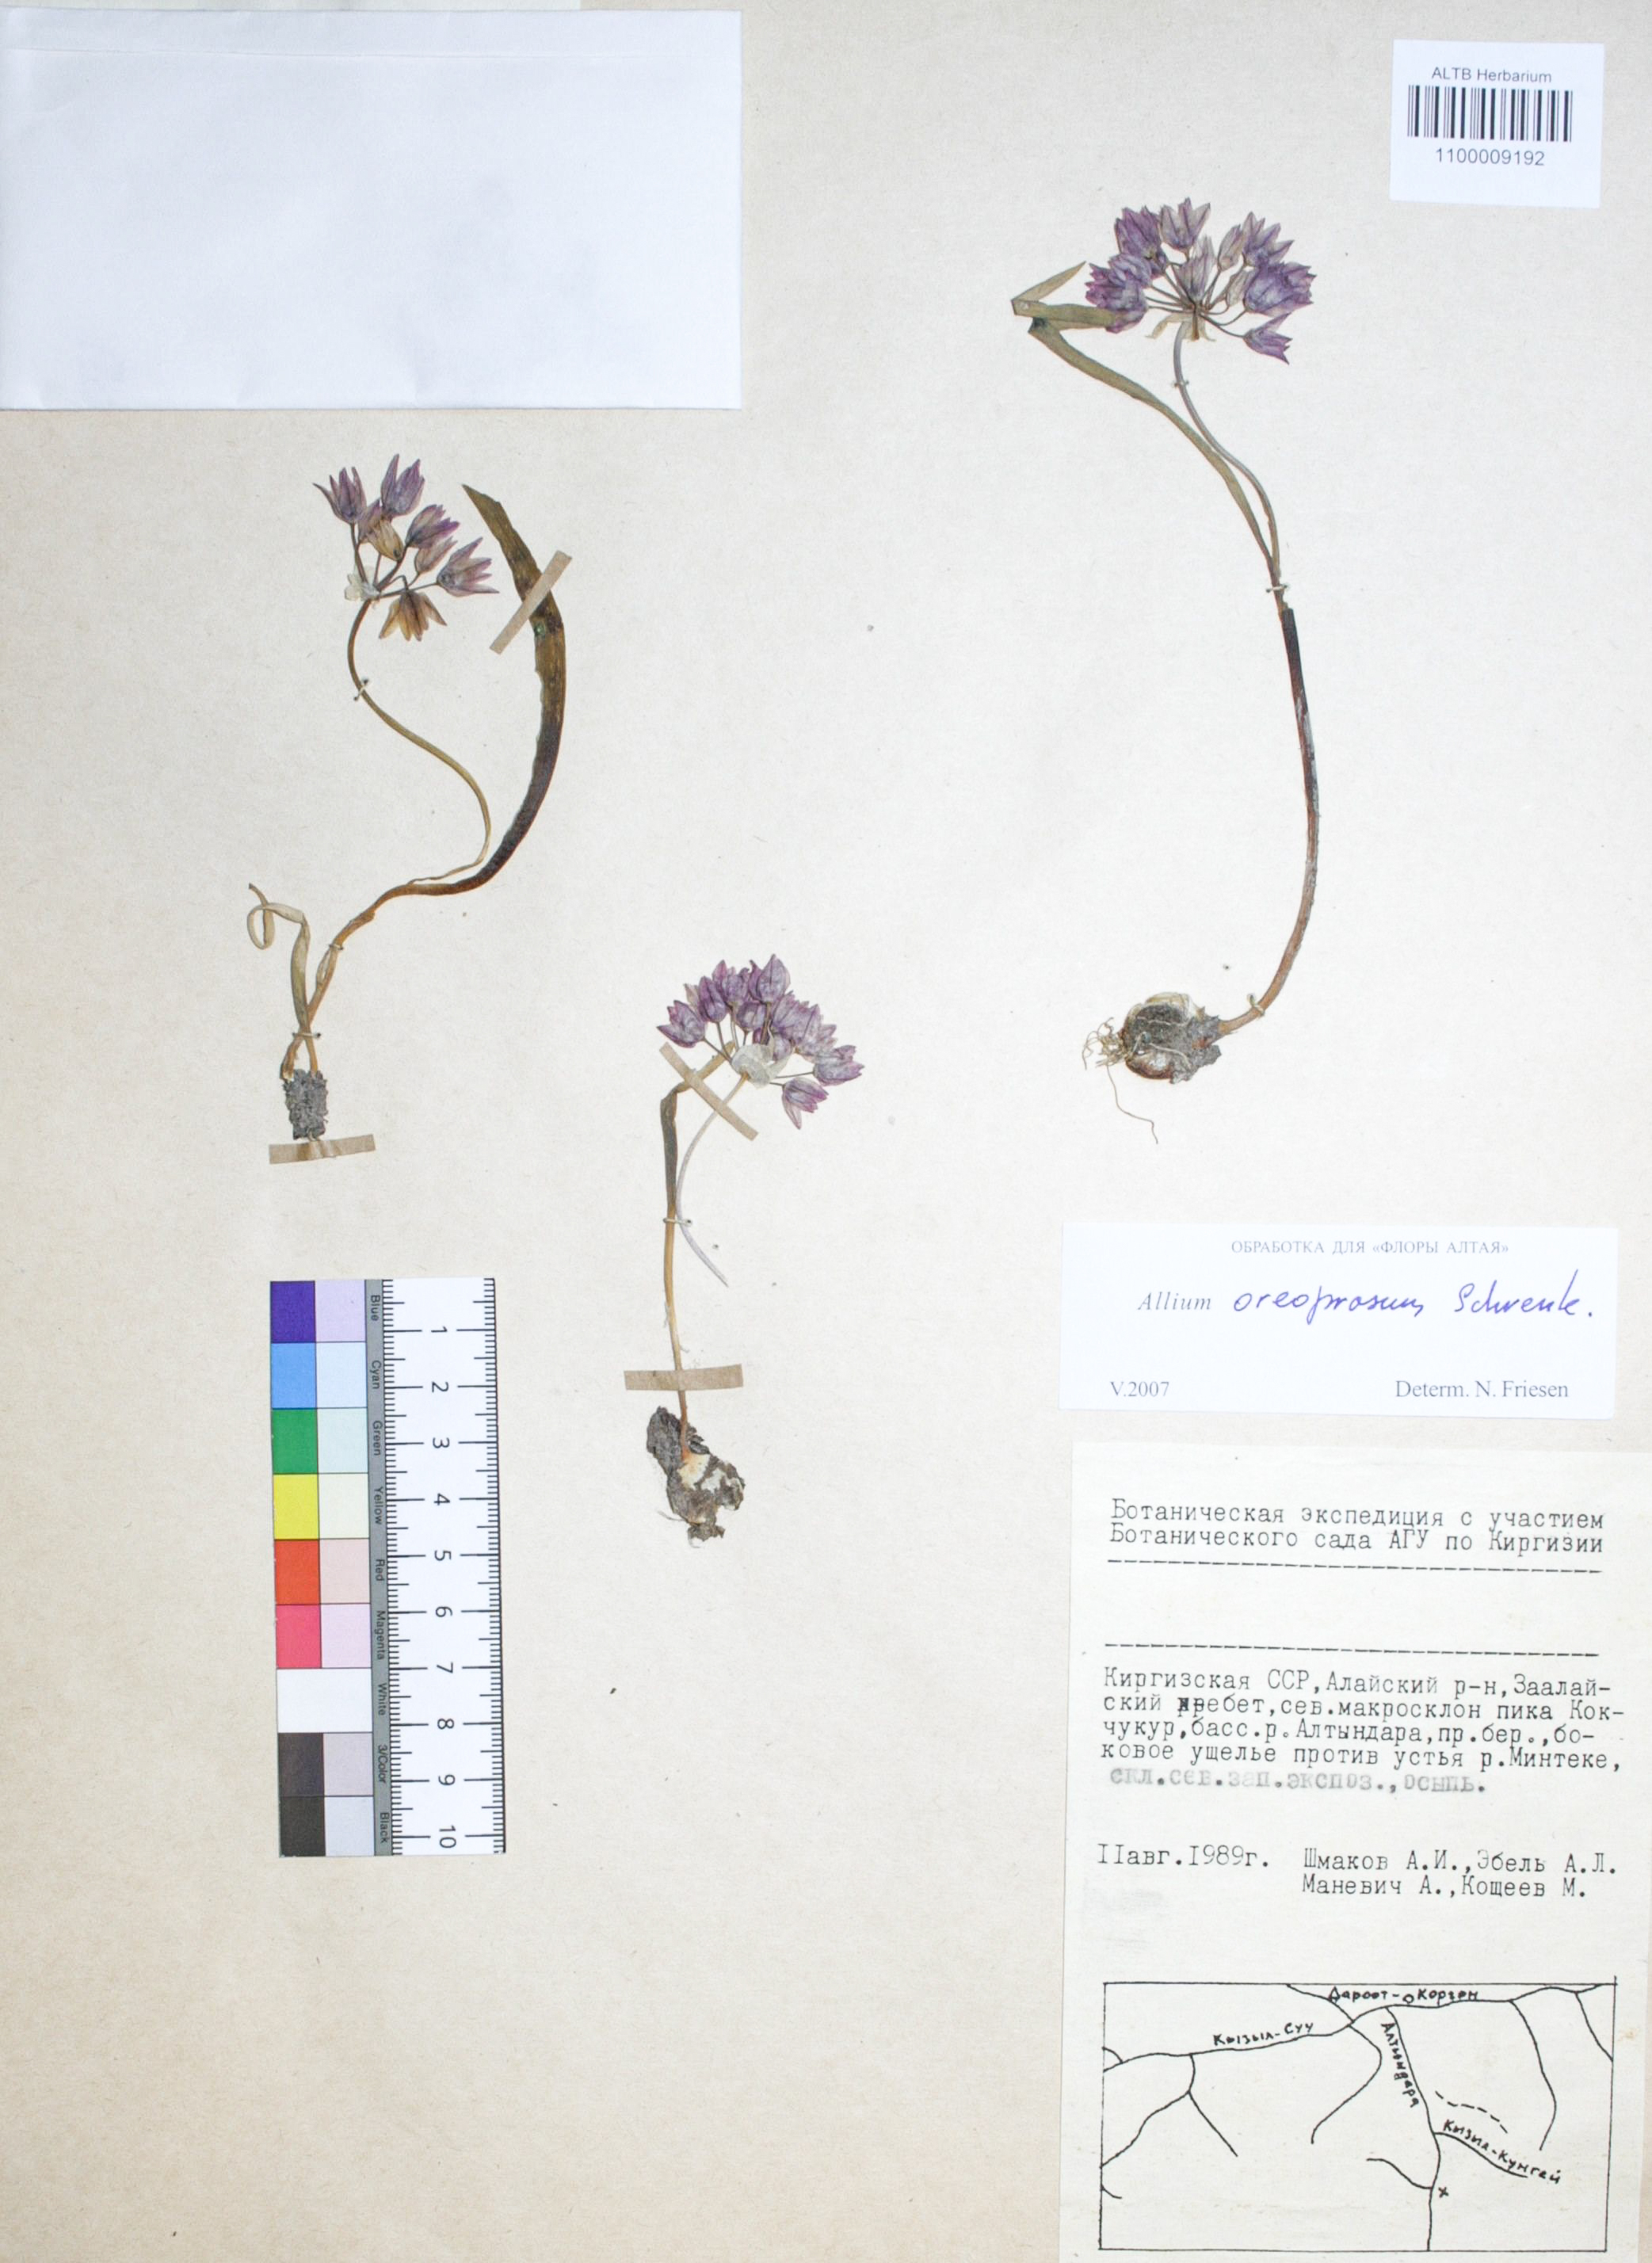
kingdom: Plantae
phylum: Tracheophyta
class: Liliopsida
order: Asparagales
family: Amaryllidaceae
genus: Allium
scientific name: Allium ampeloprasum
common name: Wild leek
